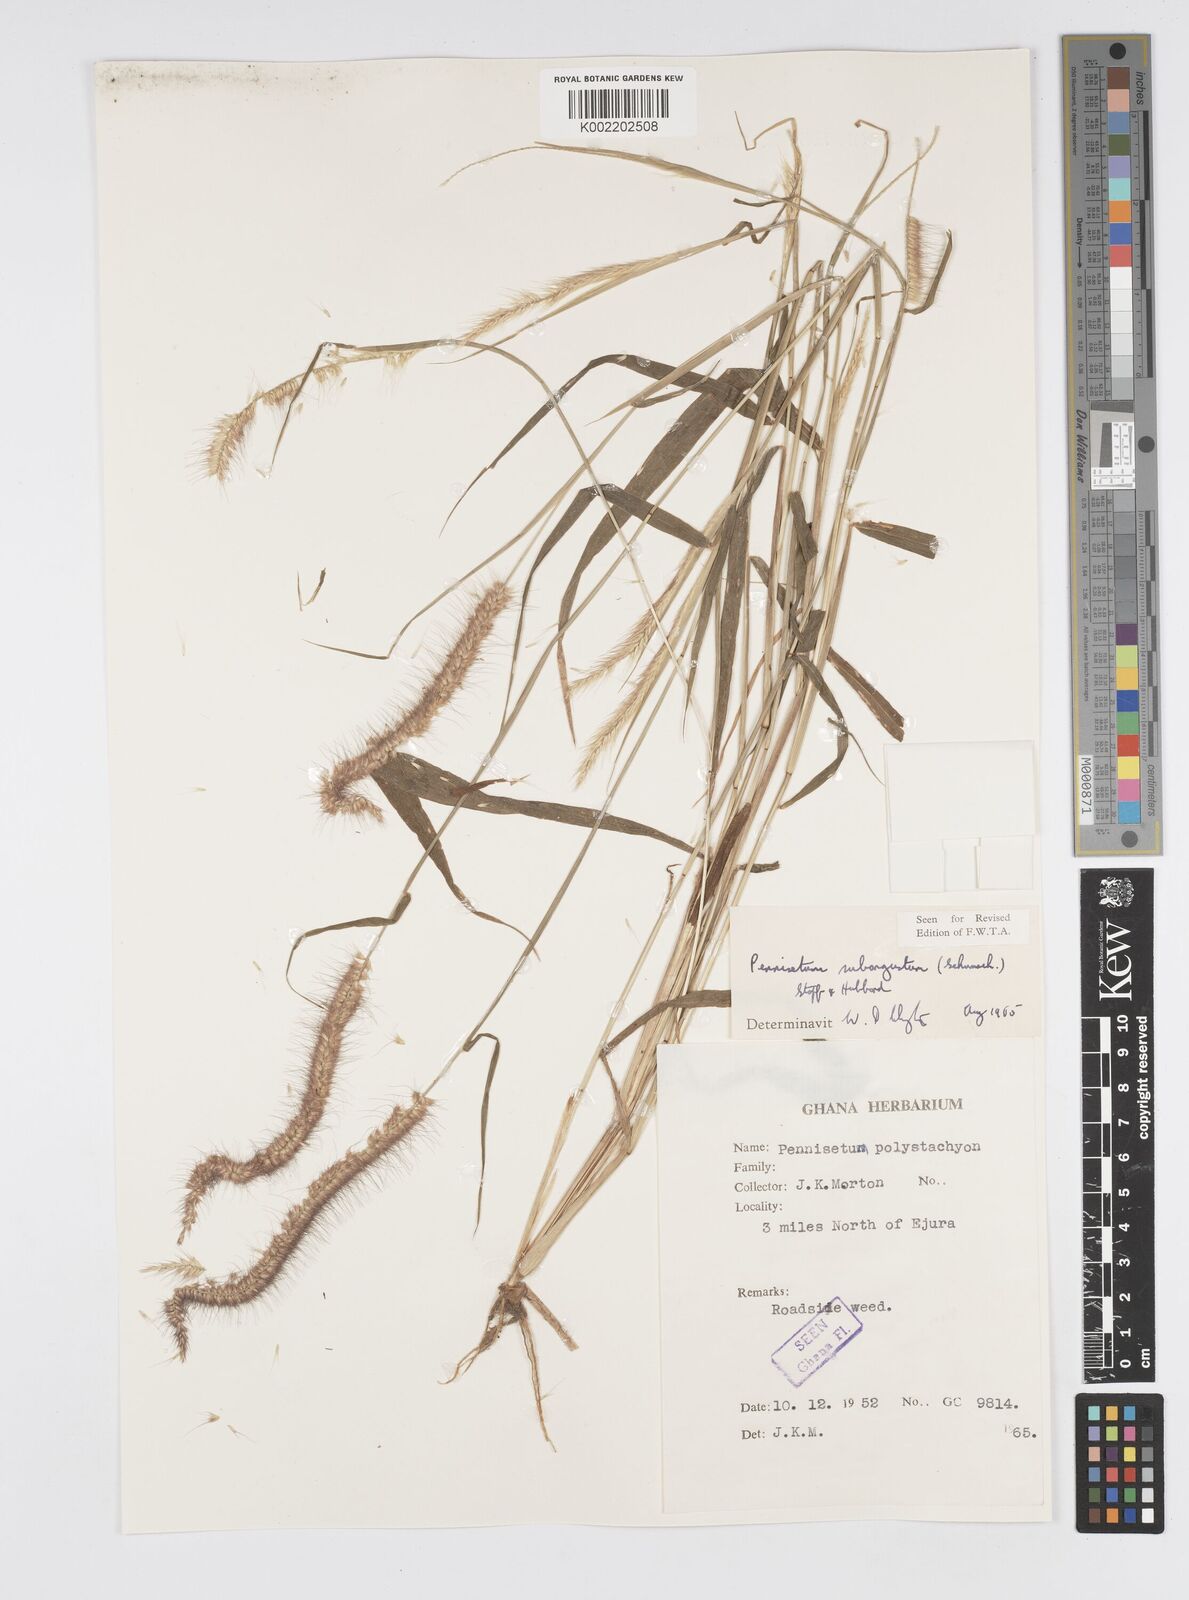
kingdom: Plantae
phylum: Tracheophyta
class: Liliopsida
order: Poales
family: Poaceae
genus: Setaria
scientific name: Setaria parviflora
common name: Knotroot bristle-grass
